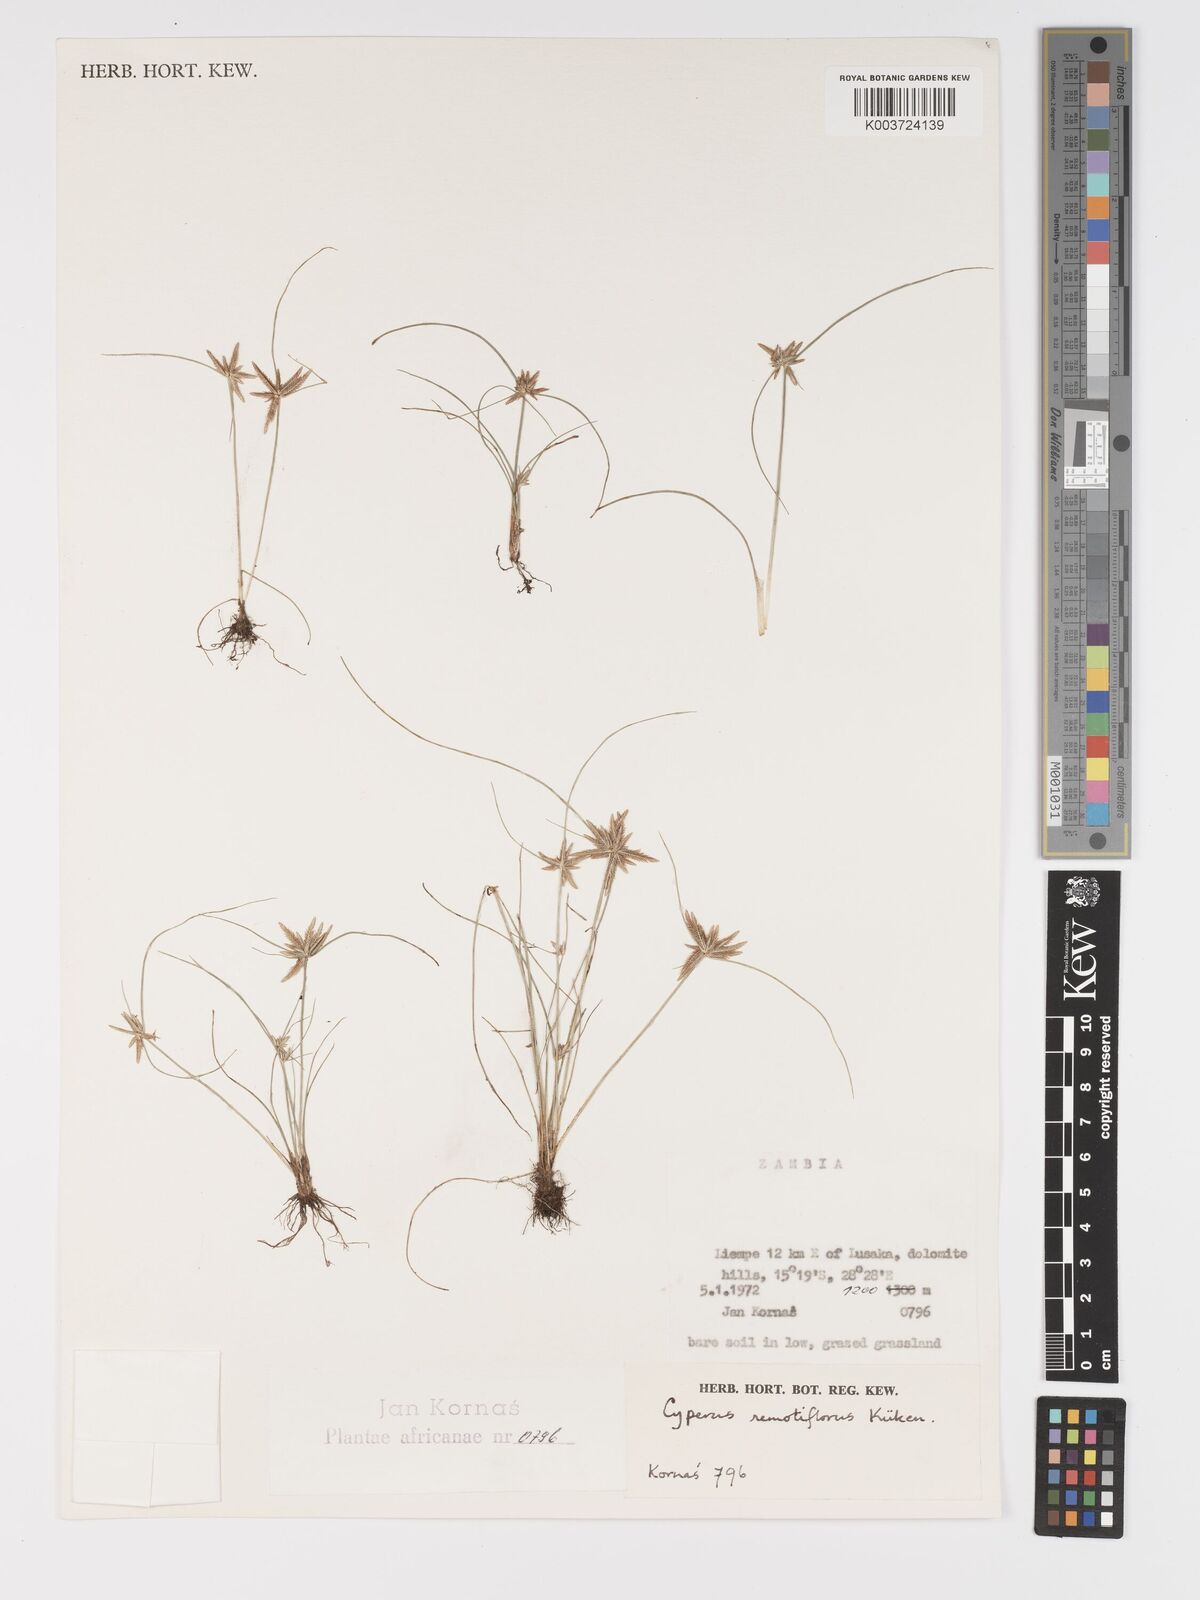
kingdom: Plantae
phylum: Tracheophyta
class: Liliopsida
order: Poales
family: Cyperaceae
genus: Cyperus
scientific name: Cyperus remotiflorus
